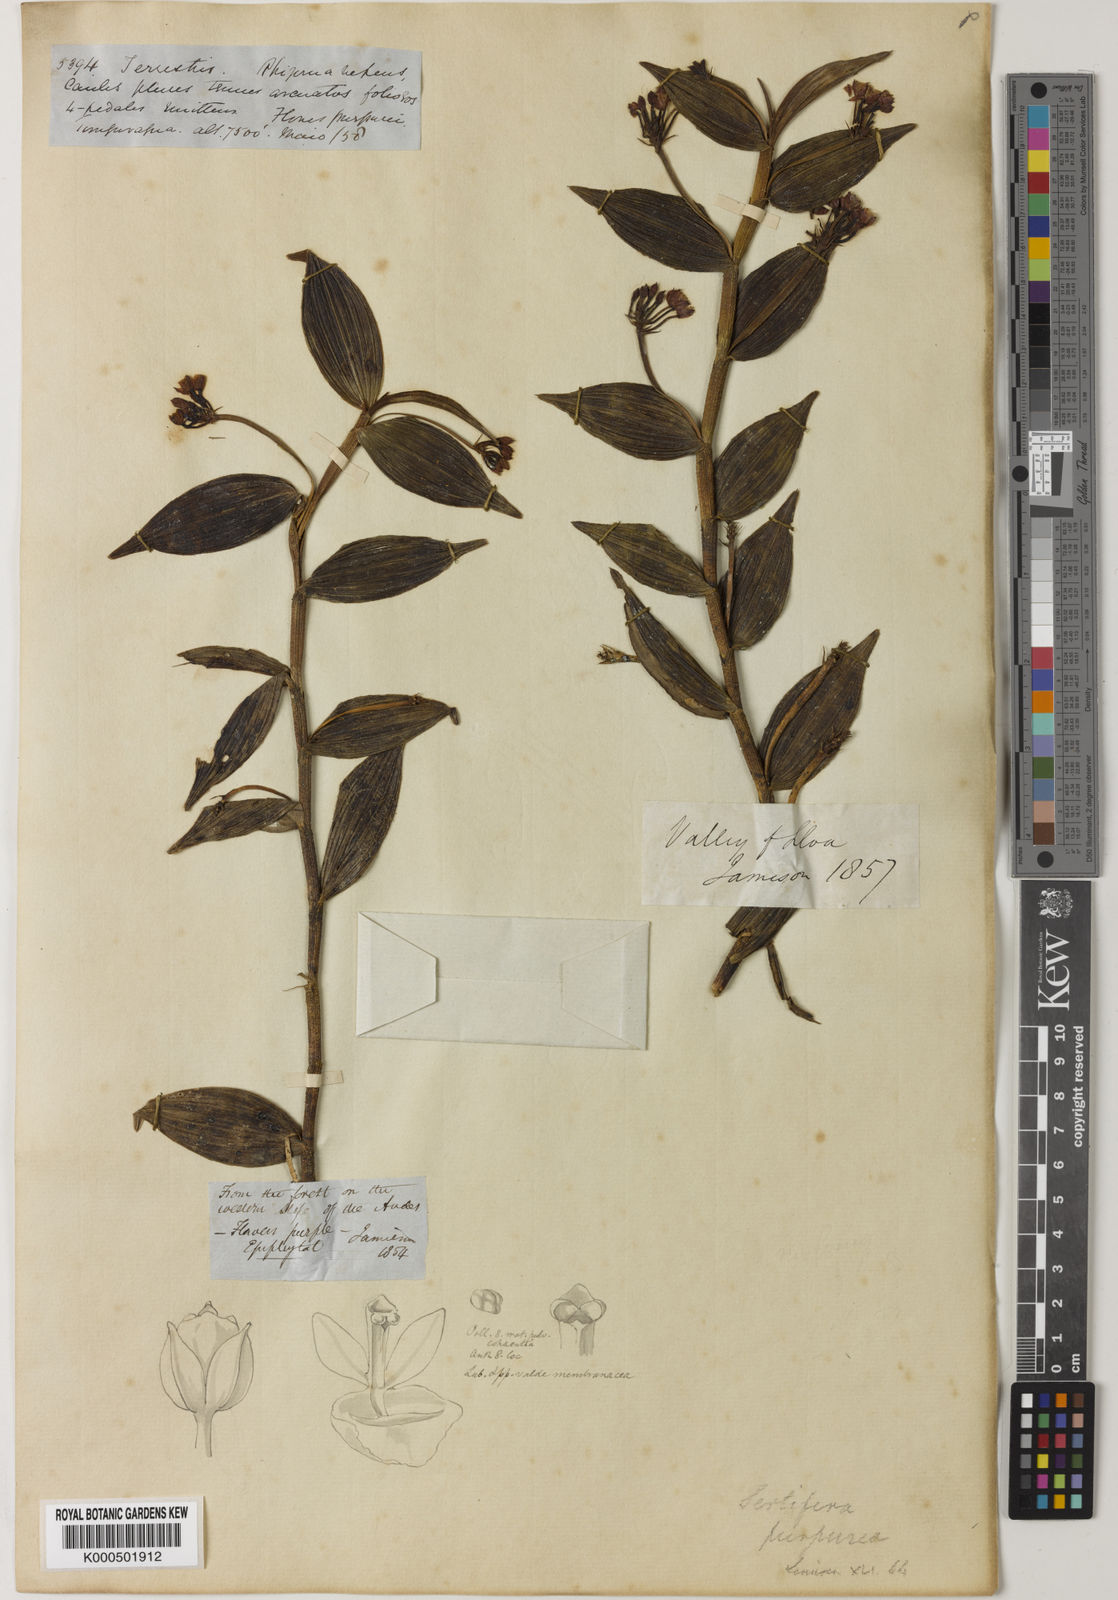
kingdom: Plantae
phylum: Tracheophyta
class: Liliopsida
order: Asparagales
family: Orchidaceae
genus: Sertifera
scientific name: Sertifera purpurea
